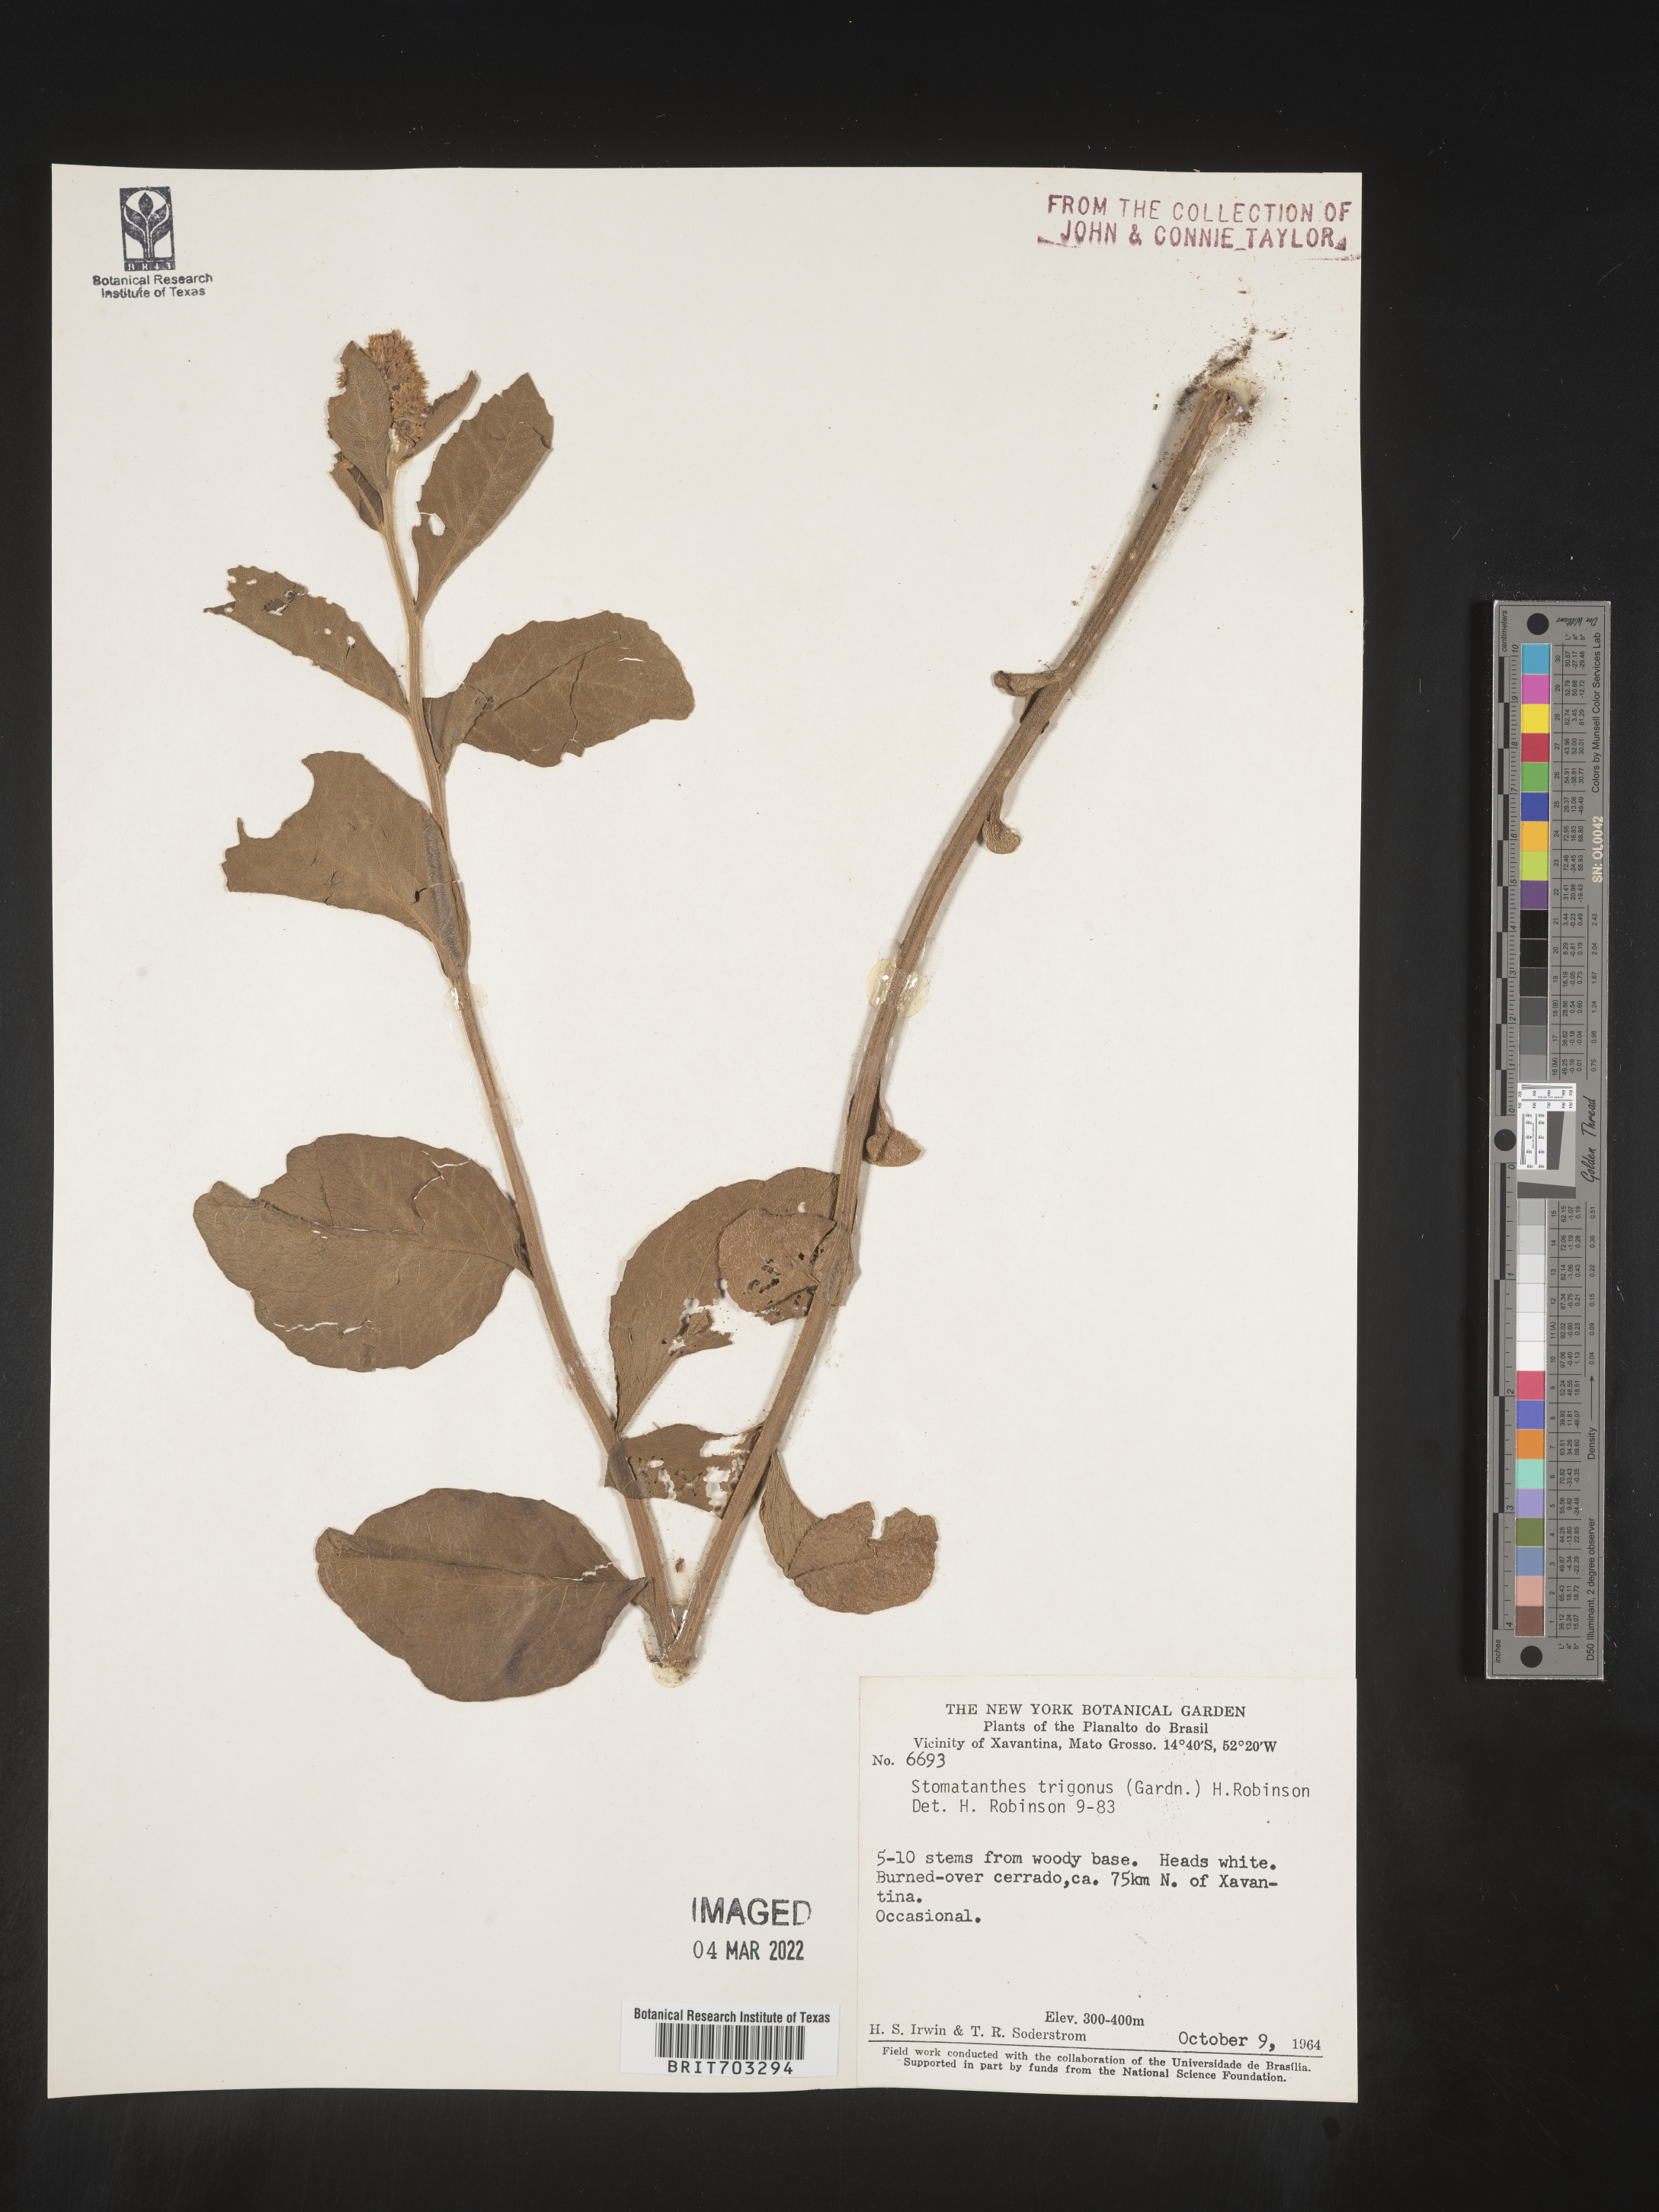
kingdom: Plantae
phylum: Tracheophyta
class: Magnoliopsida
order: Asterales
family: Asteraceae
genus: Eupatorium
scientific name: Eupatorium
